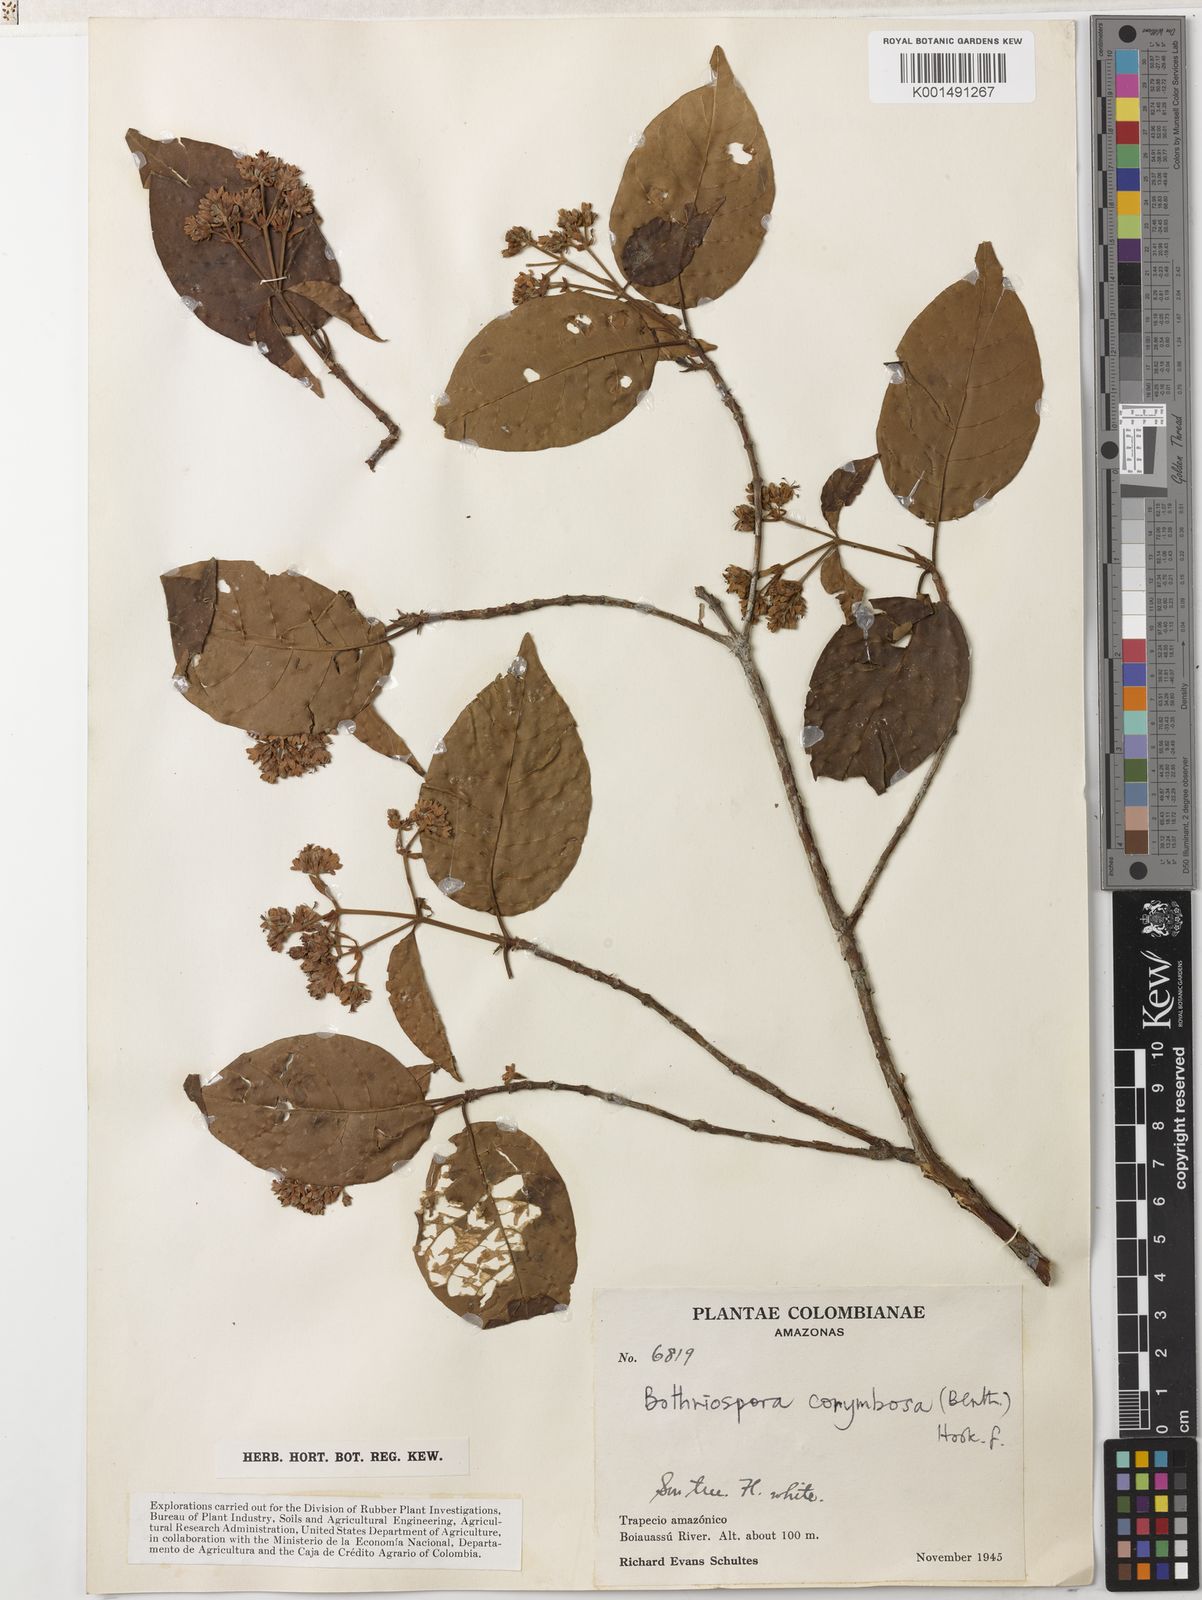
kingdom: Plantae
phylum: Tracheophyta
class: Magnoliopsida
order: Gentianales
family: Rubiaceae
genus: Bothriospora
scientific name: Bothriospora corymbosa
